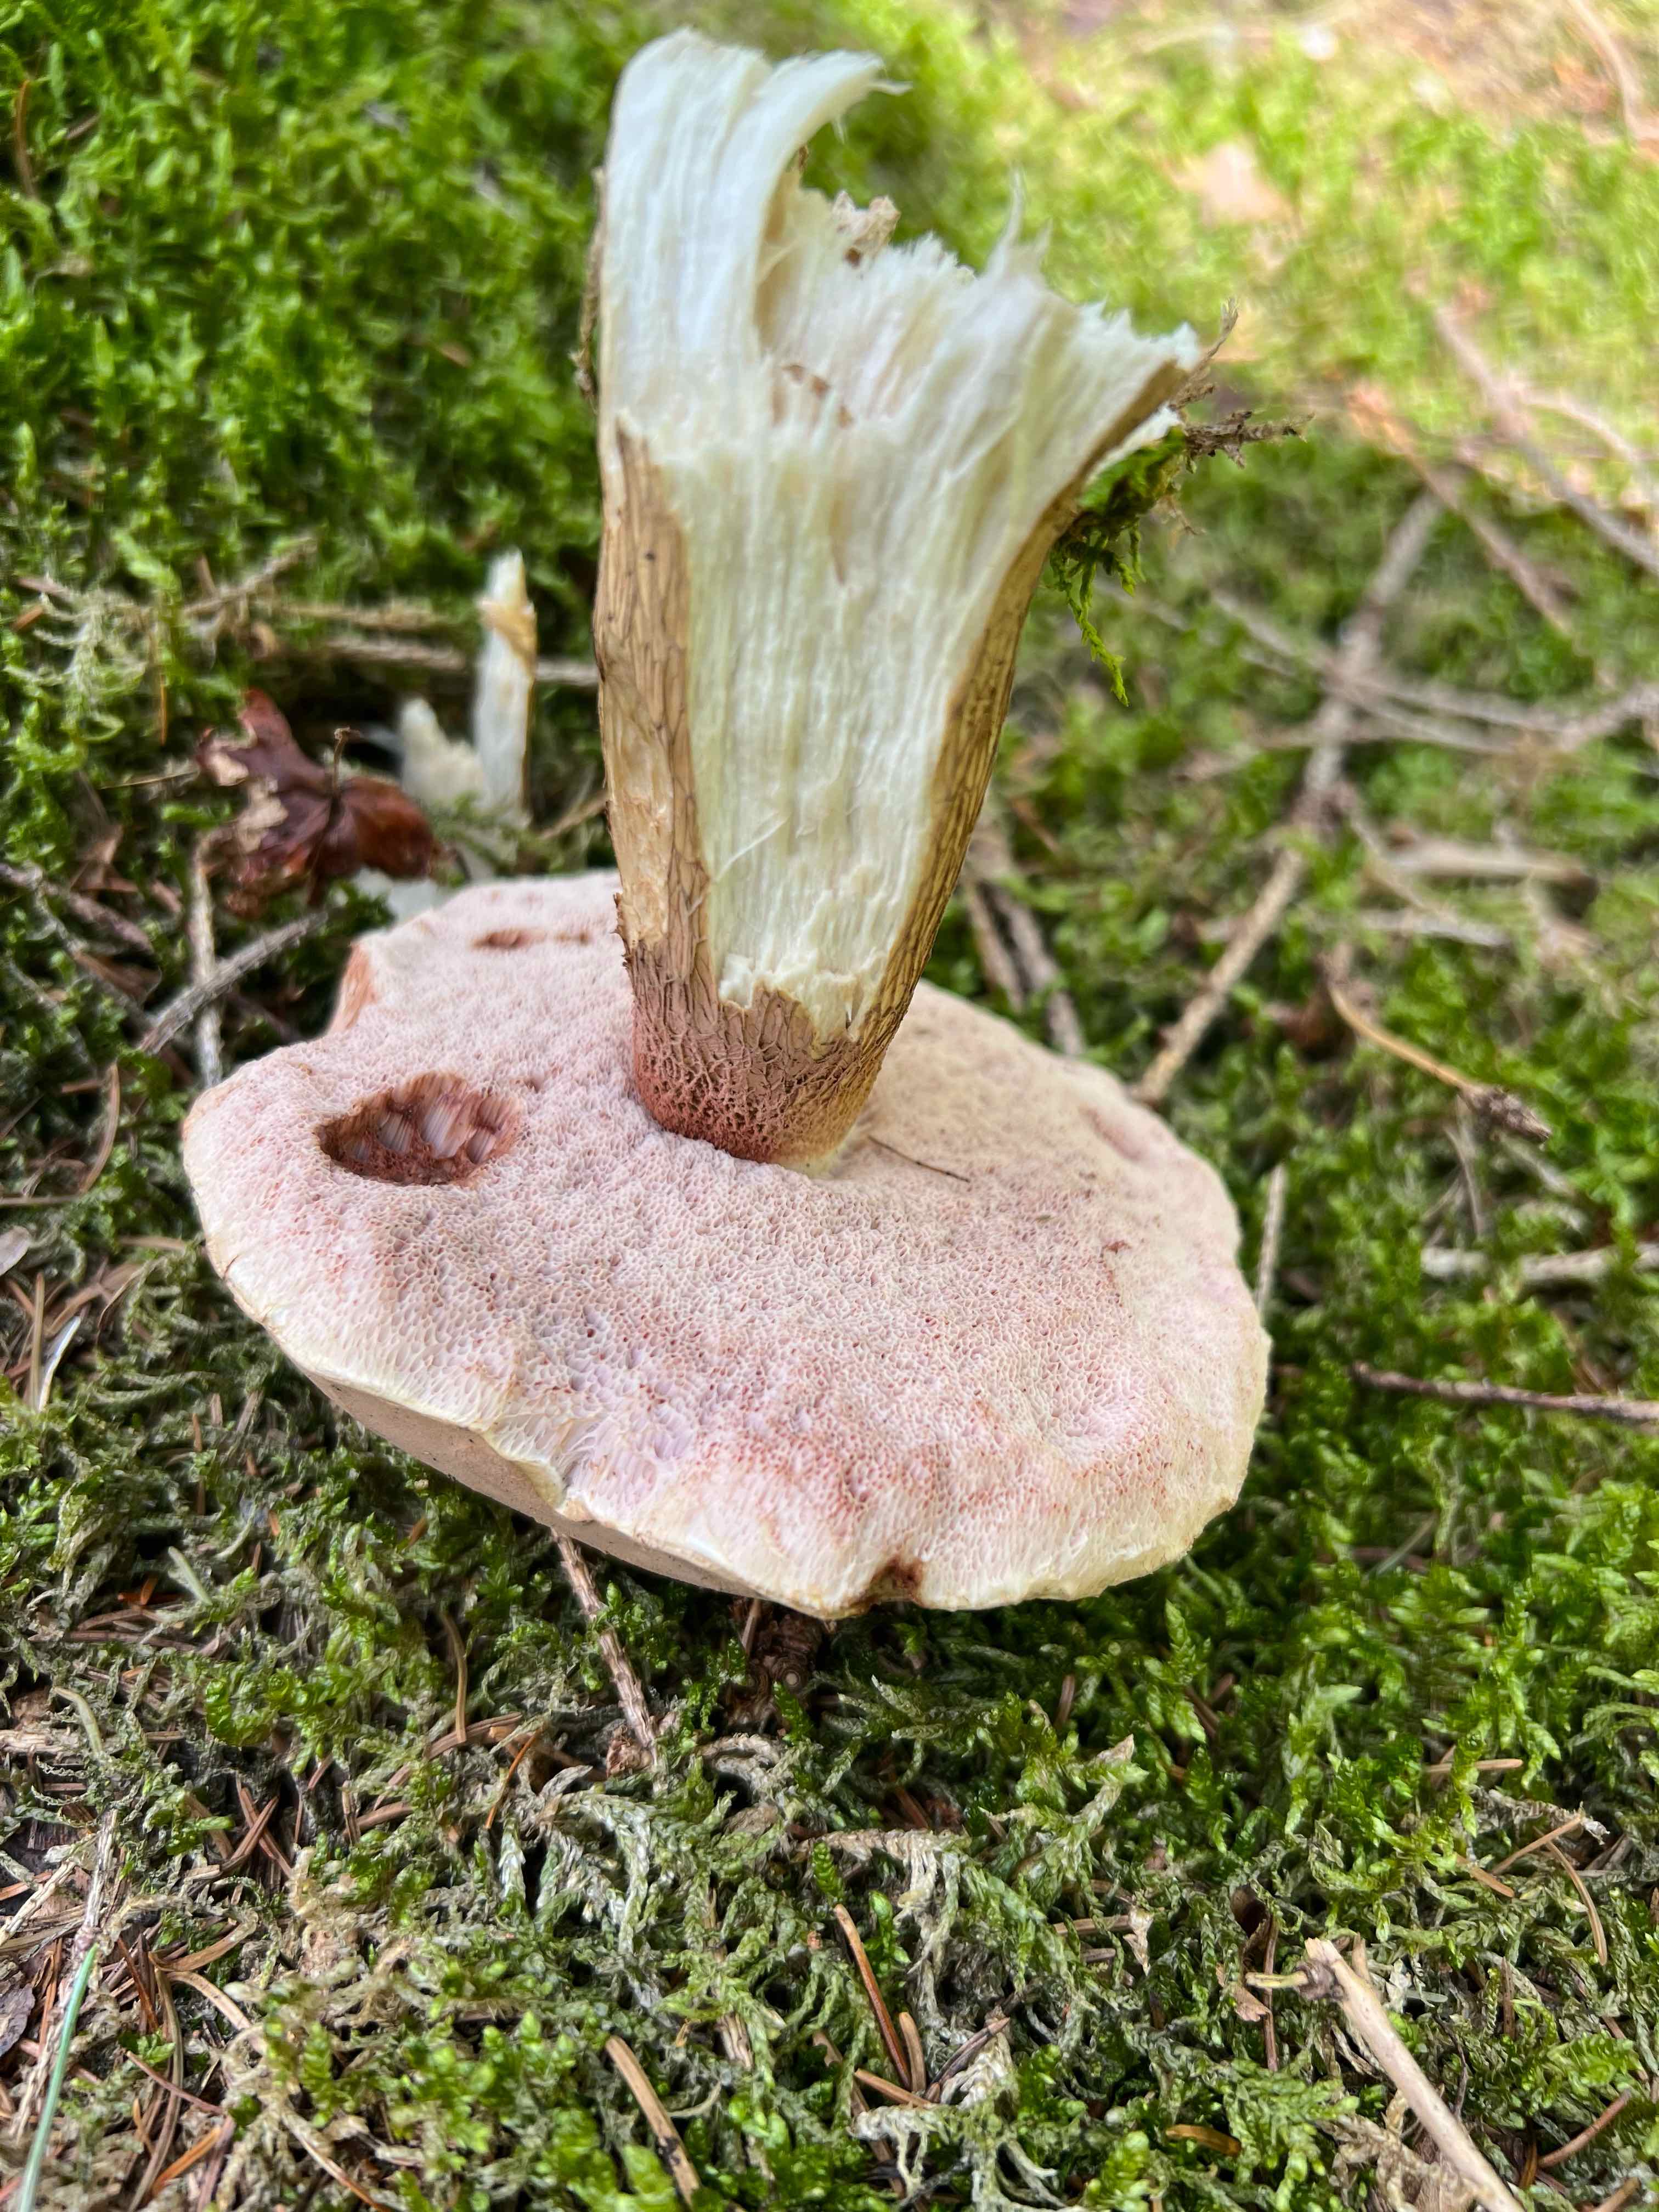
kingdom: Fungi
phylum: Basidiomycota
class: Agaricomycetes
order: Boletales
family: Boletaceae
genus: Tylopilus
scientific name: Tylopilus felleus
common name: galderørhat
